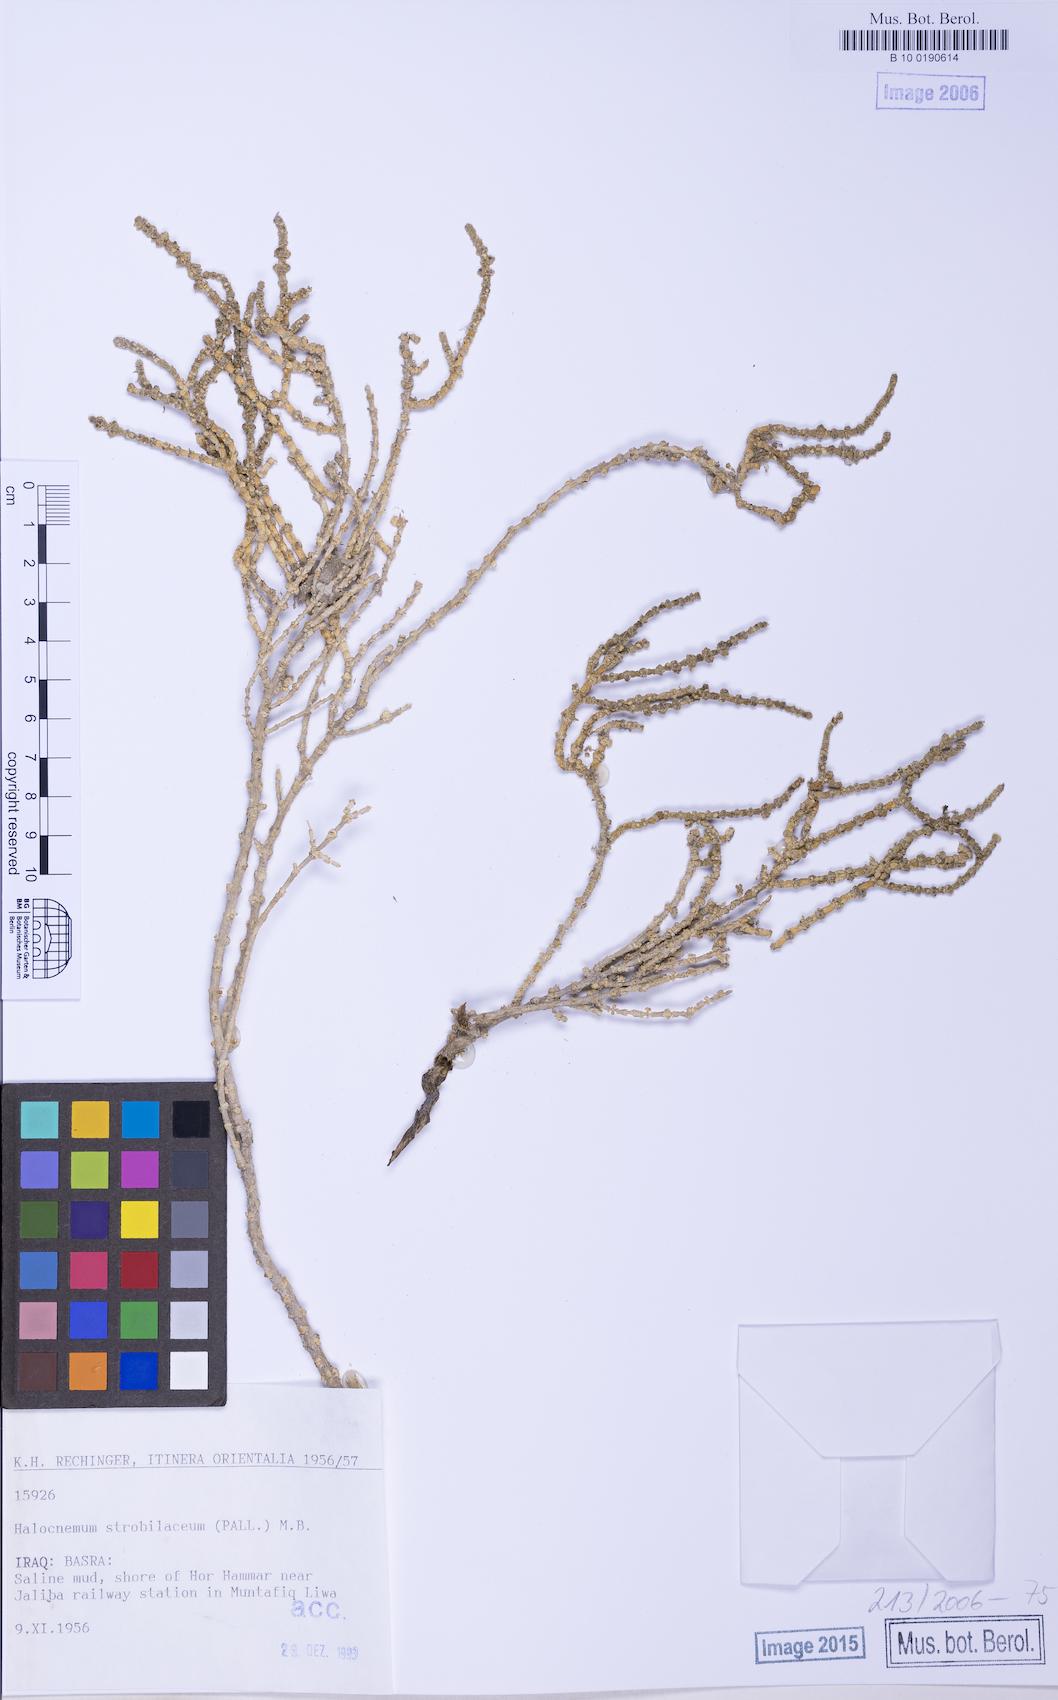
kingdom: Plantae
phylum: Tracheophyta
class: Magnoliopsida
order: Caryophyllales
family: Amaranthaceae
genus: Halocnemum
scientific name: Halocnemum strobilaceum
